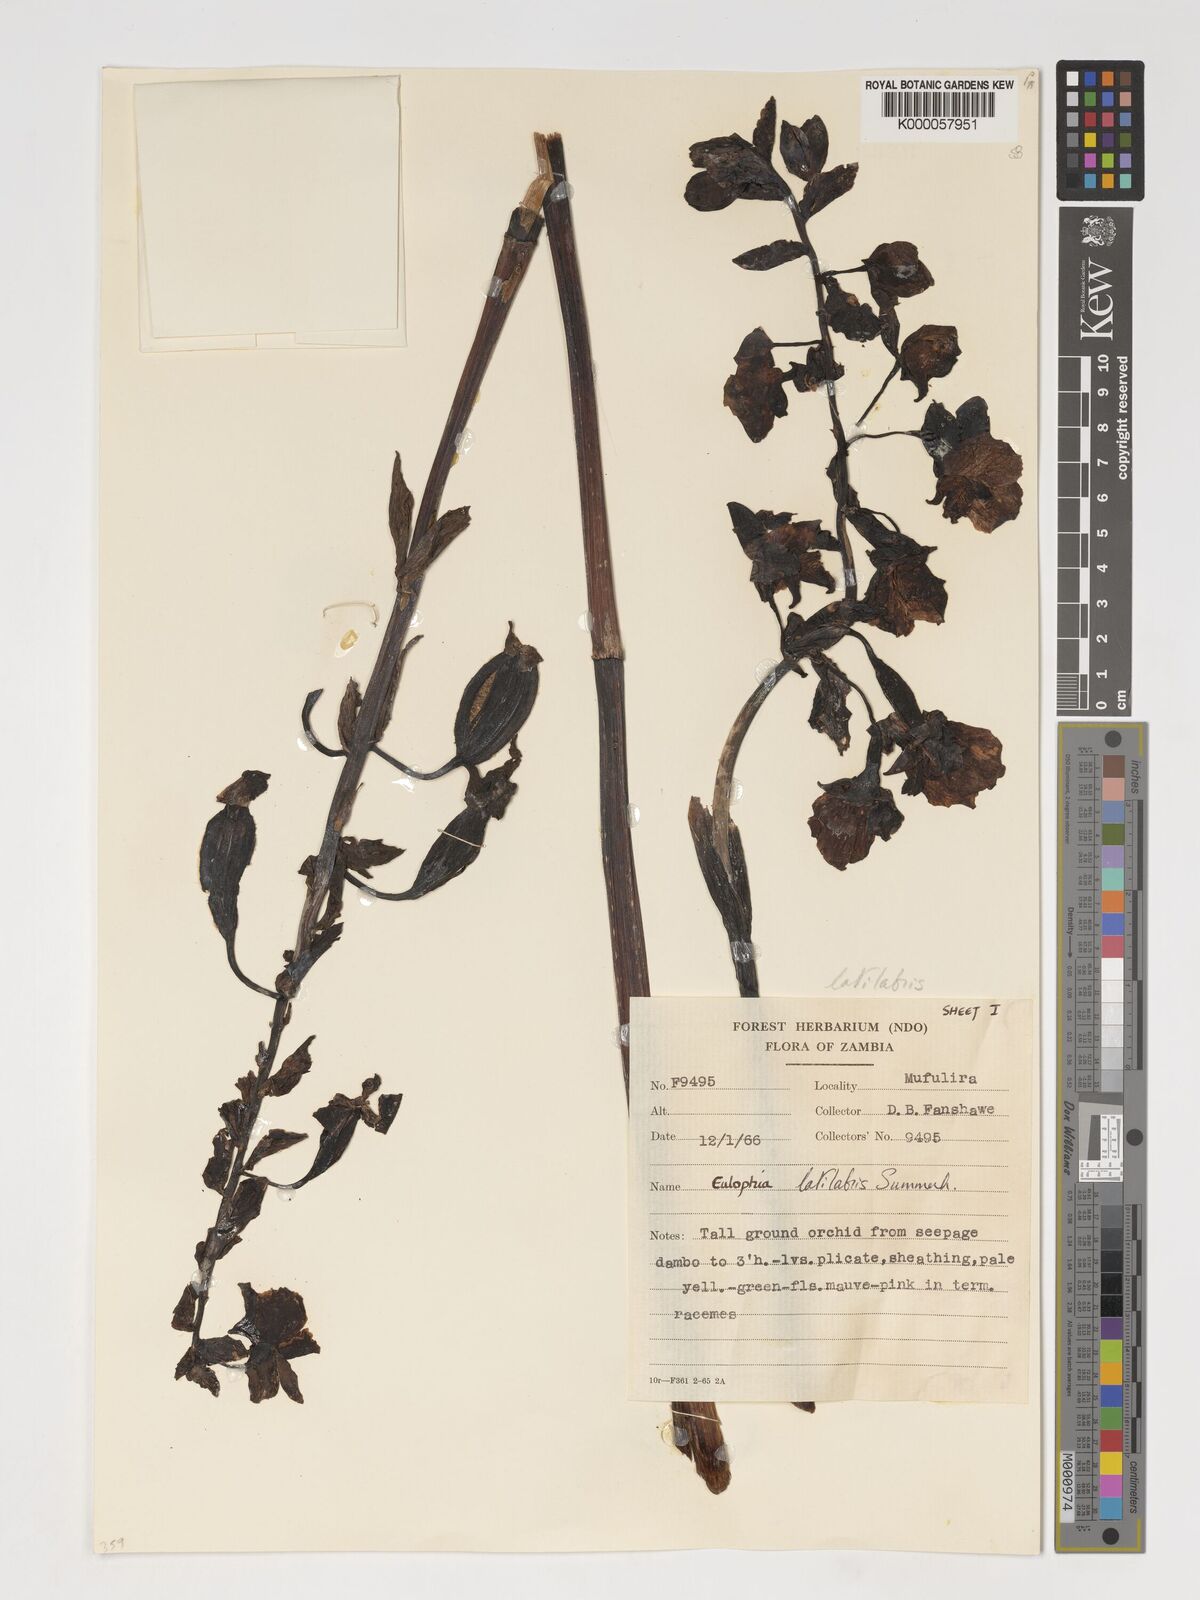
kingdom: Plantae
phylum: Tracheophyta
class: Liliopsida
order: Asparagales
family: Orchidaceae
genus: Eulophia
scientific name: Eulophia latilabris
